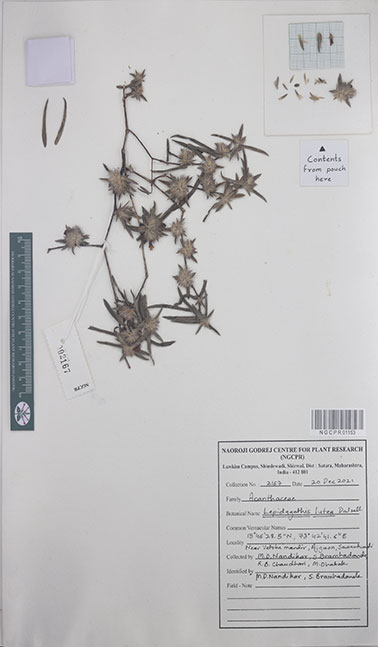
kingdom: Plantae
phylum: Tracheophyta
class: Magnoliopsida
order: Lamiales
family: Acanthaceae
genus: Lepidagathis
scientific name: Lepidagathis lutea
